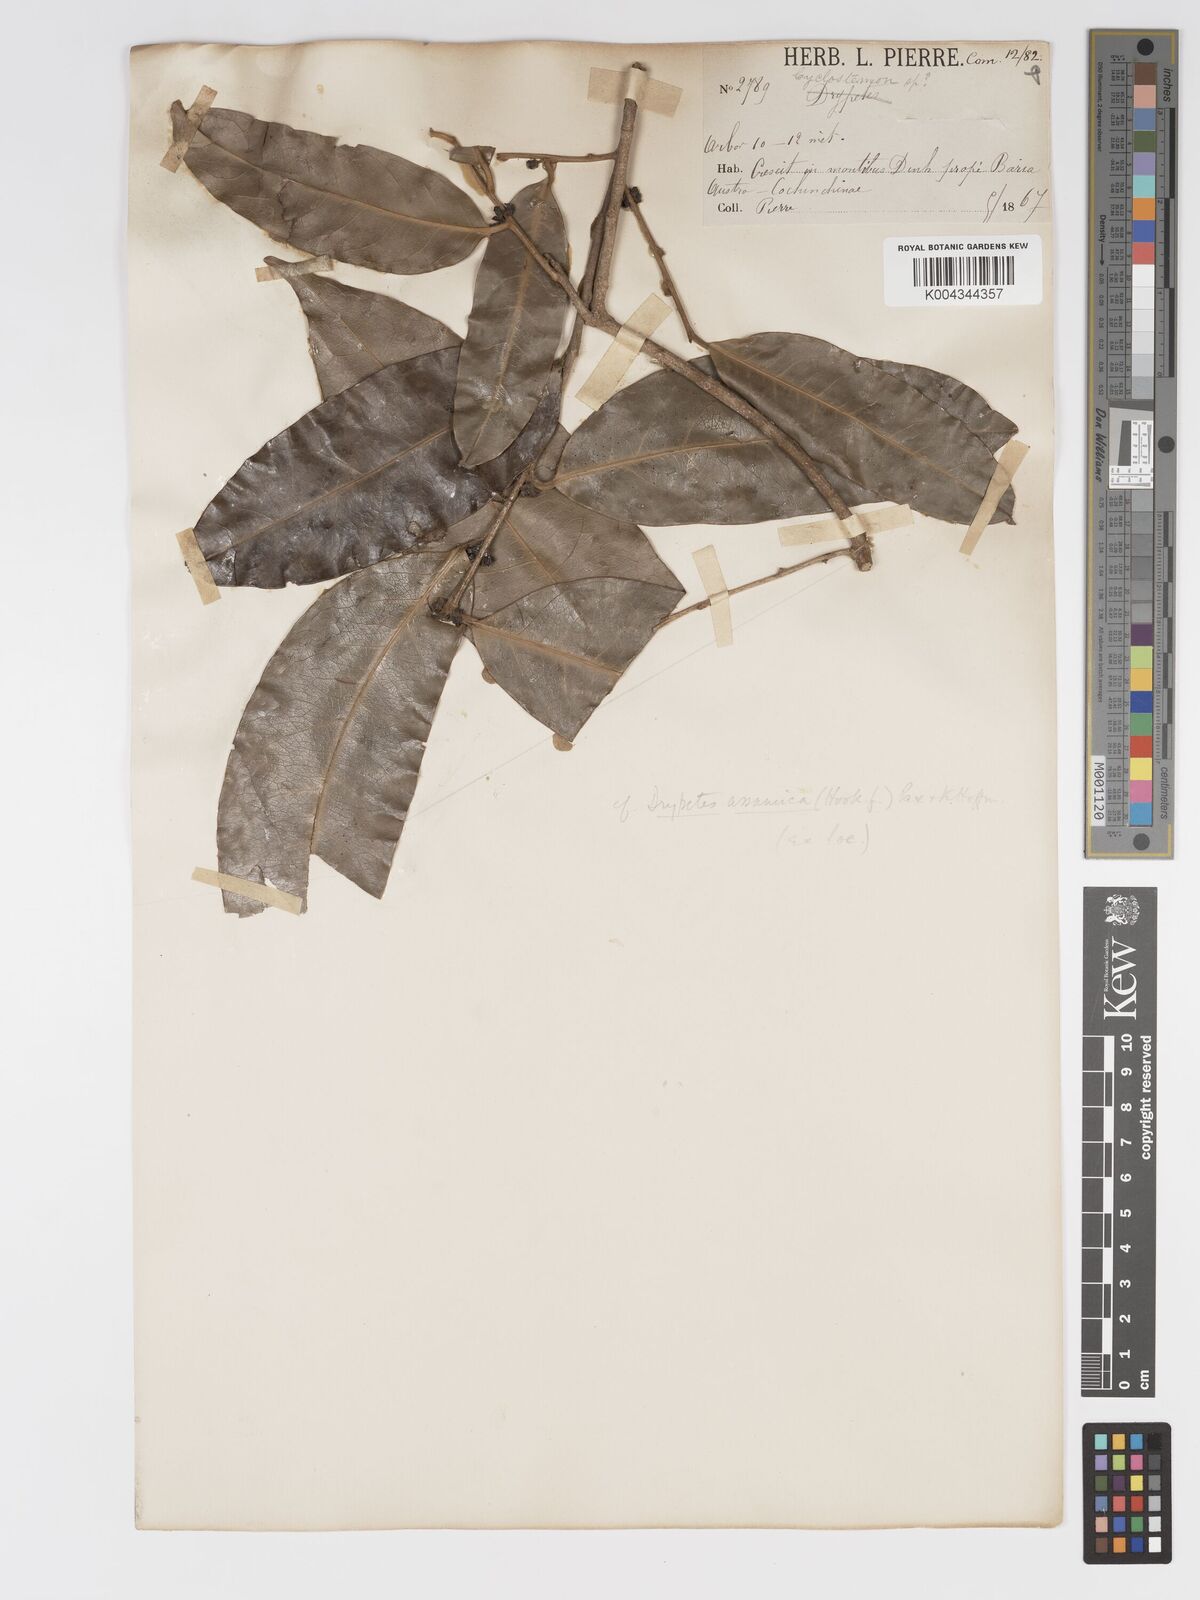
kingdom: Plantae
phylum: Tracheophyta
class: Magnoliopsida
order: Malpighiales
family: Putranjivaceae
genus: Drypetes
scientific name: Drypetes assamica
